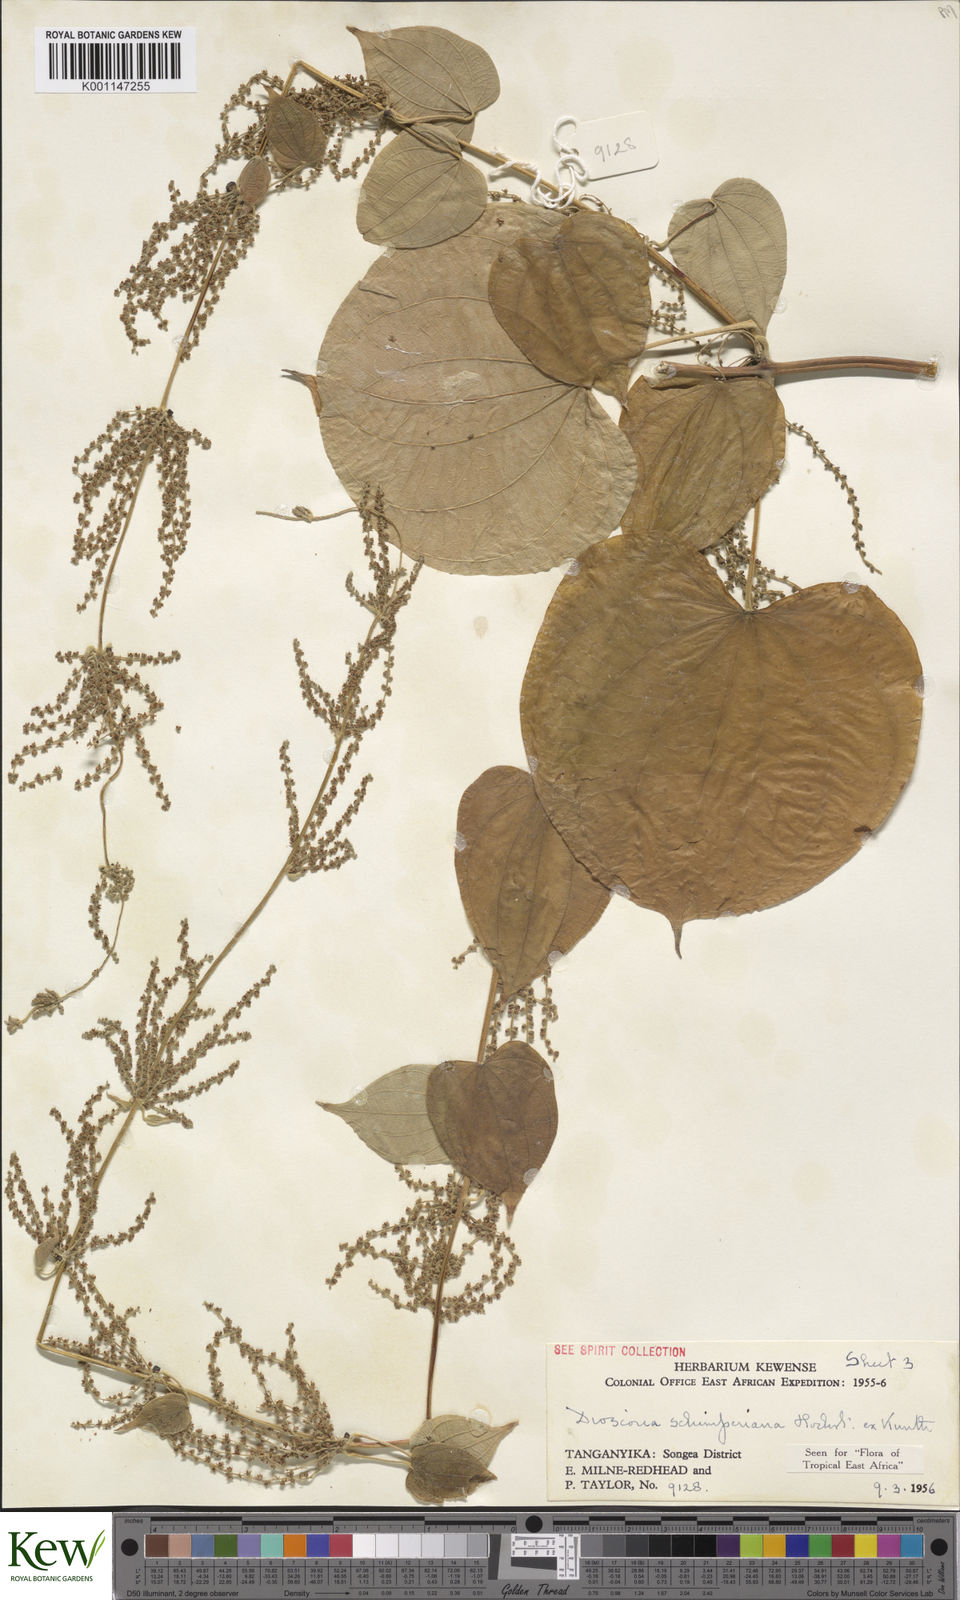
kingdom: Plantae
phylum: Tracheophyta
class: Liliopsida
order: Dioscoreales
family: Dioscoreaceae
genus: Dioscorea
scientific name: Dioscorea schimperiana
